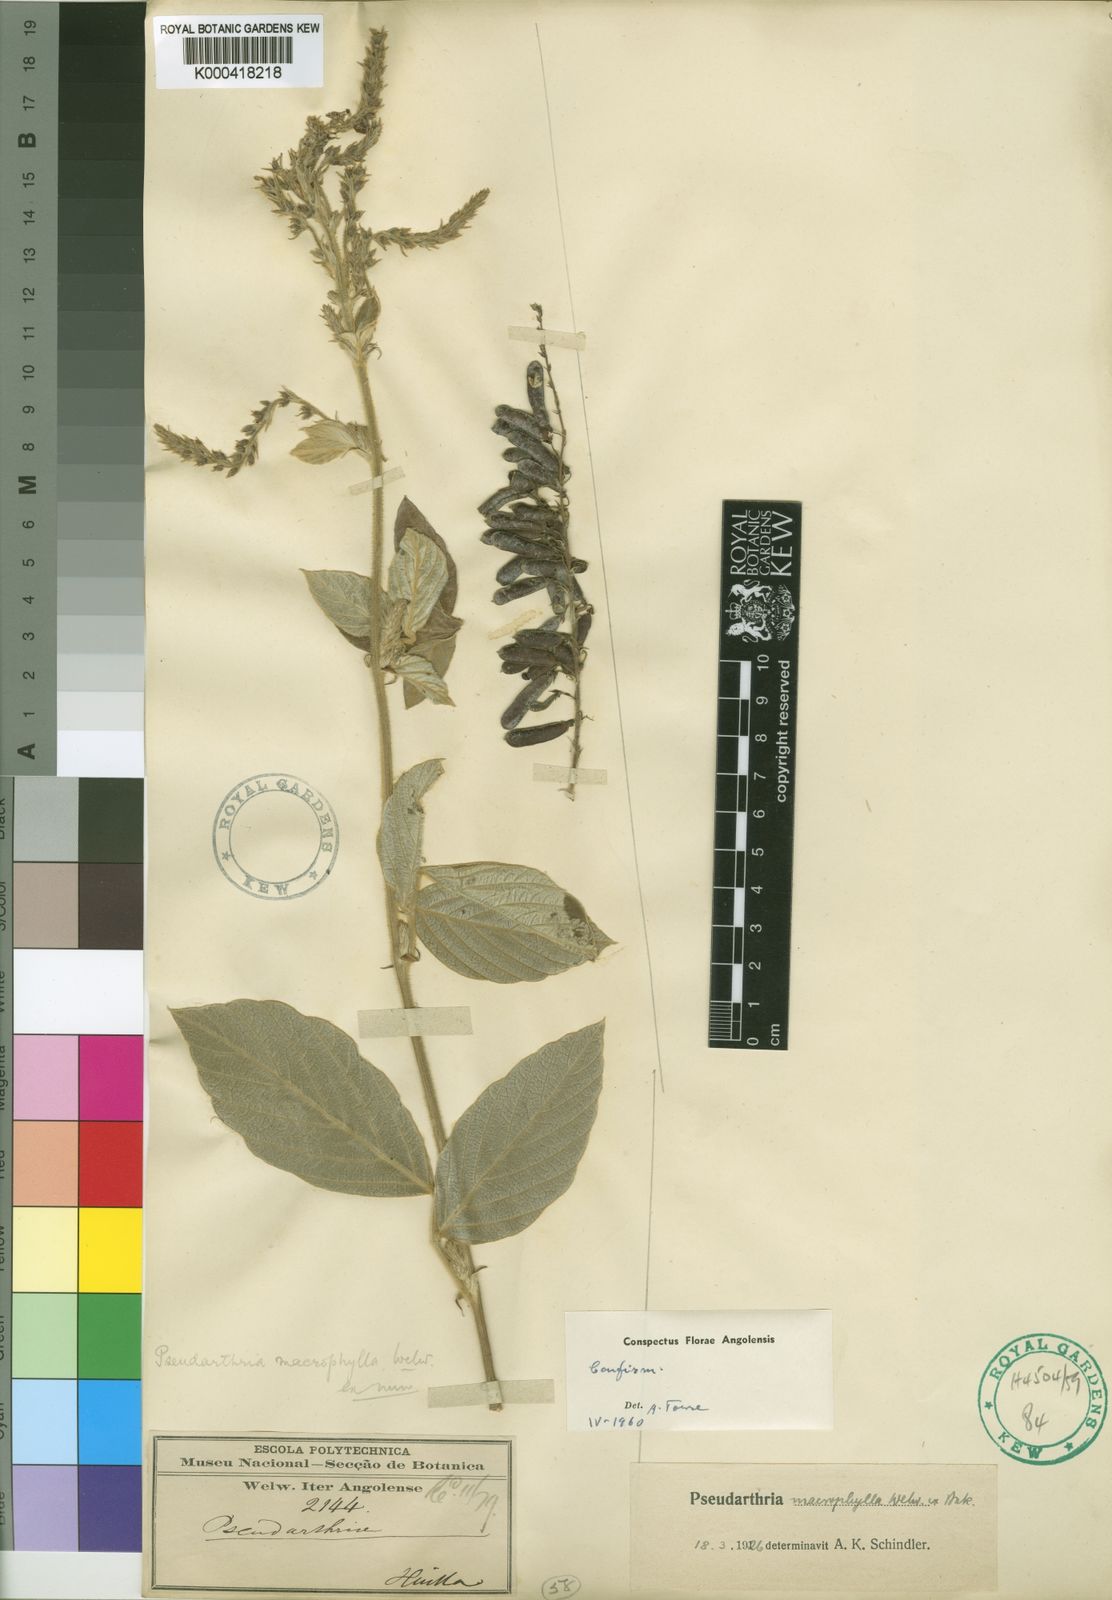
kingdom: Plantae
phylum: Tracheophyta
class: Magnoliopsida
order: Fabales
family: Fabaceae
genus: Pseudarthria
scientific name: Pseudarthria macrophylla
